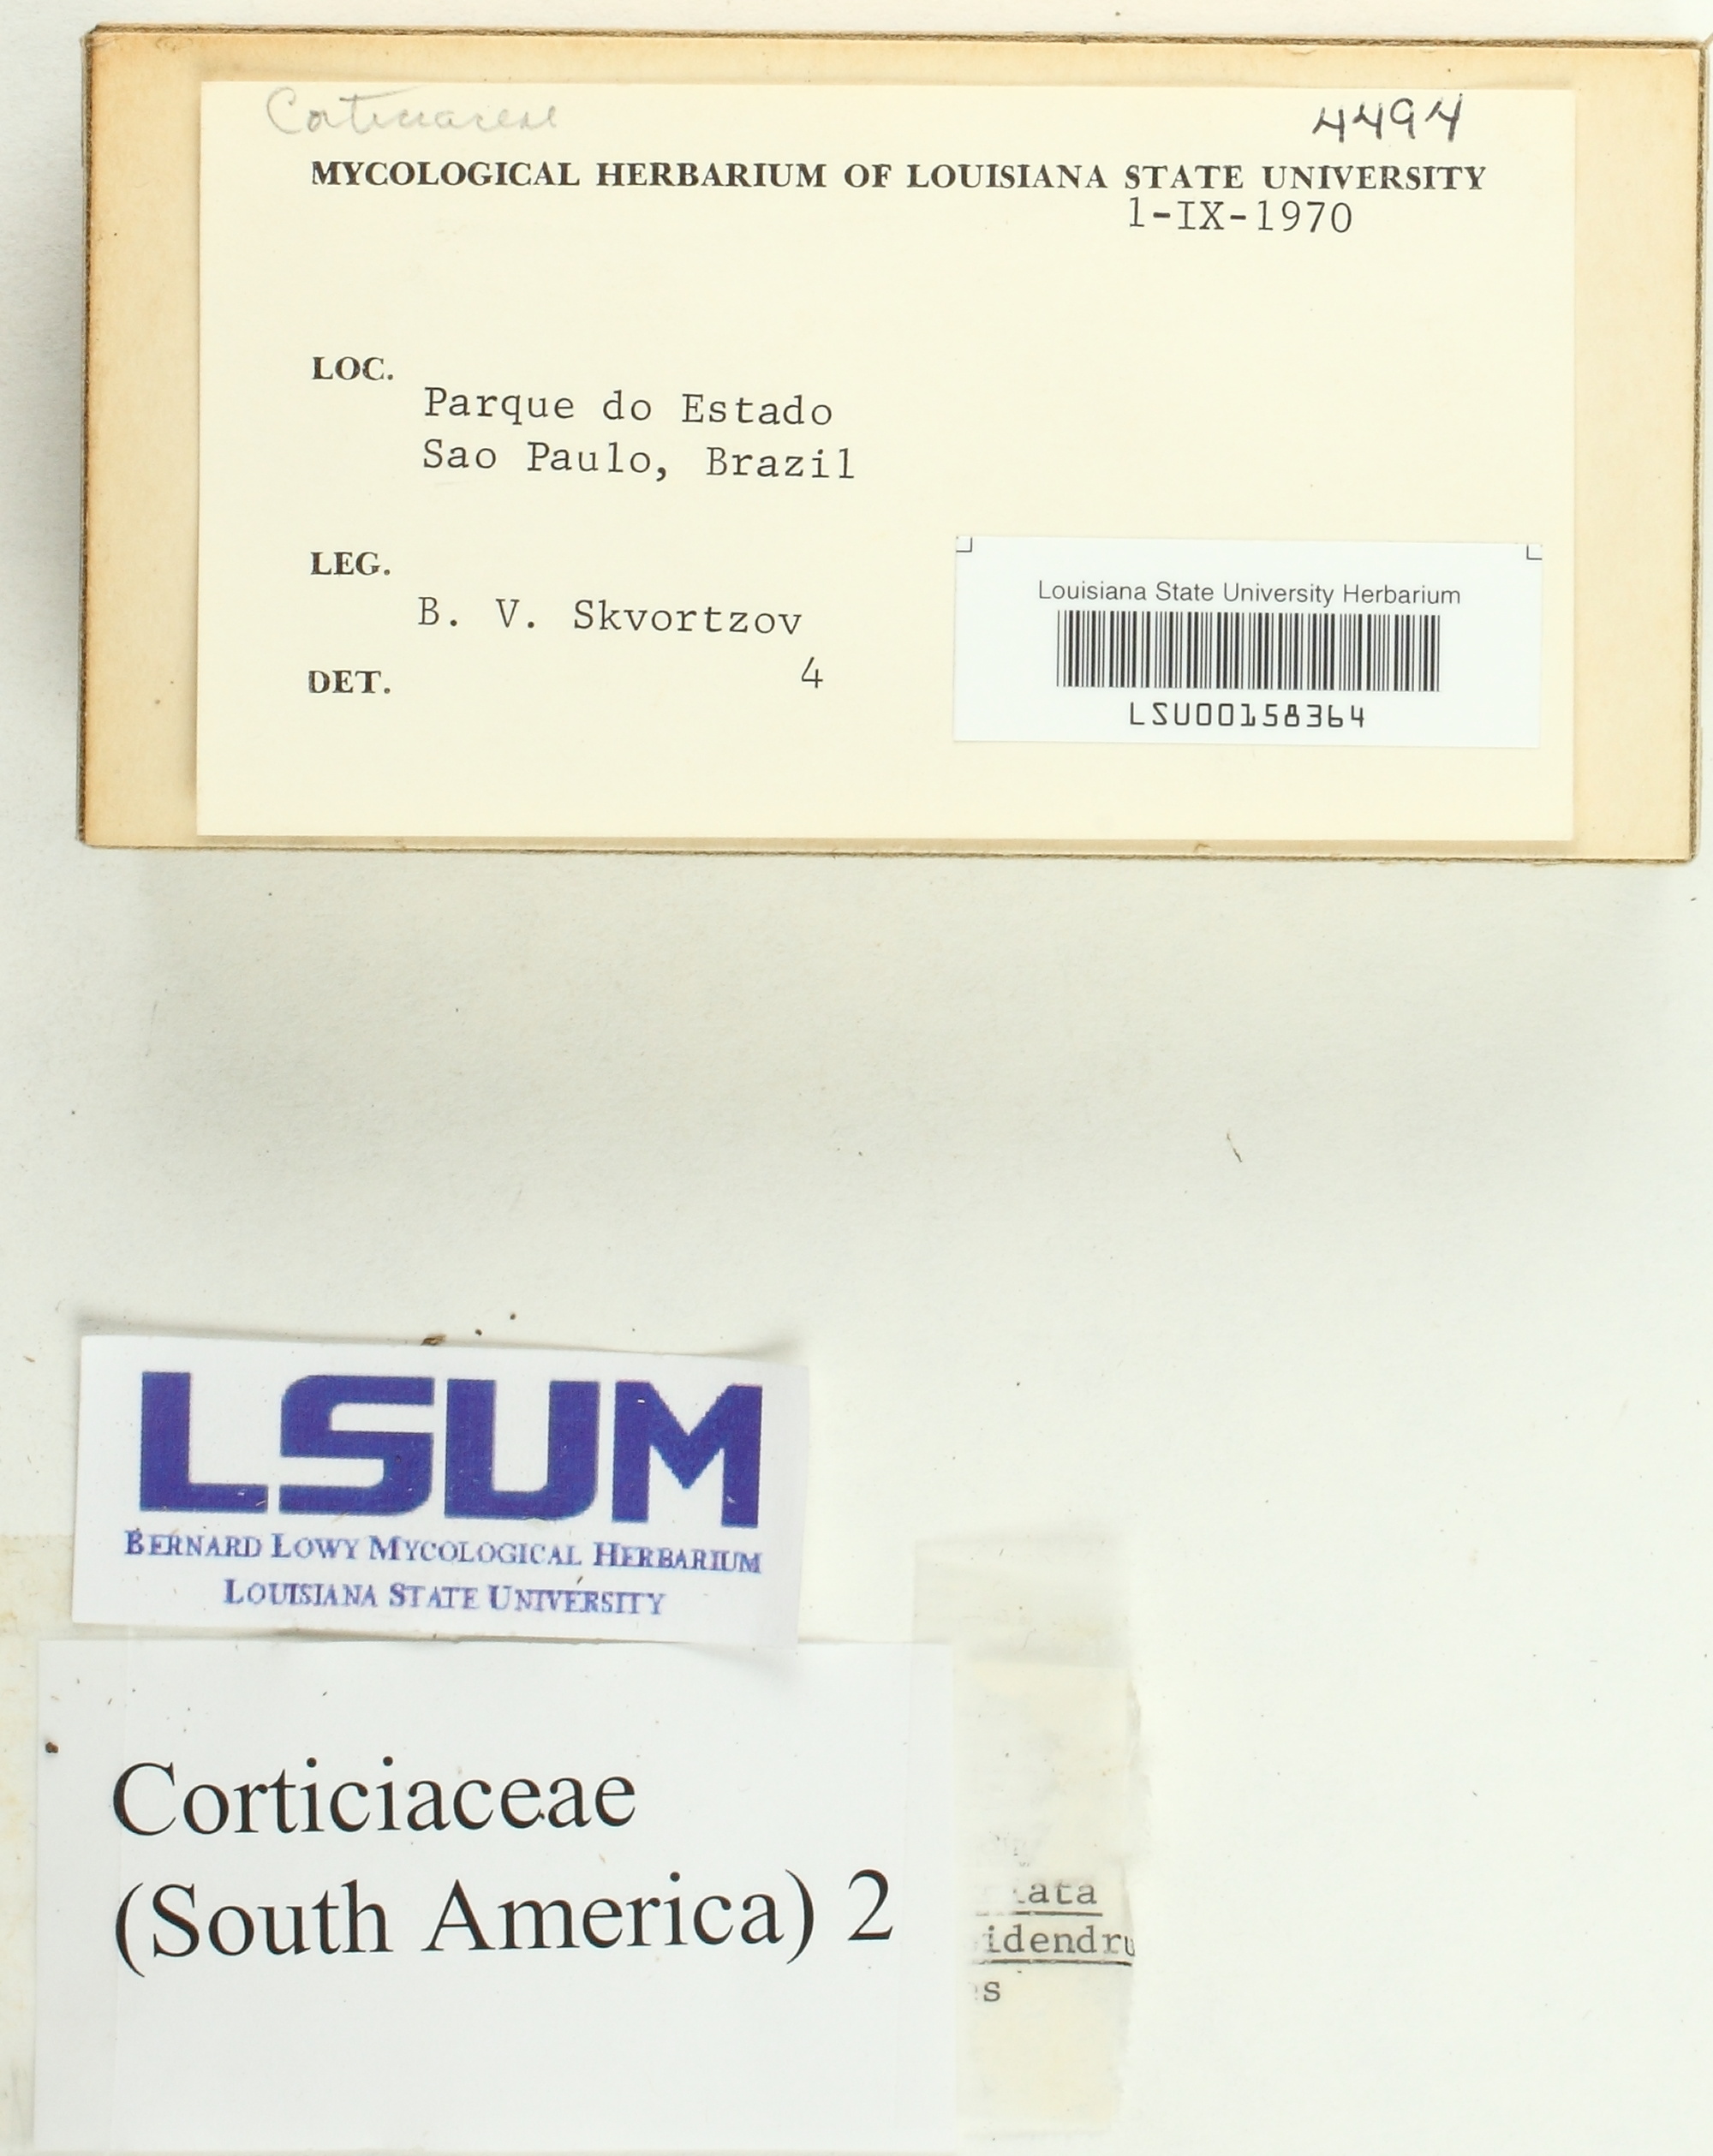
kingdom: Fungi
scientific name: Fungi
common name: Fungi
